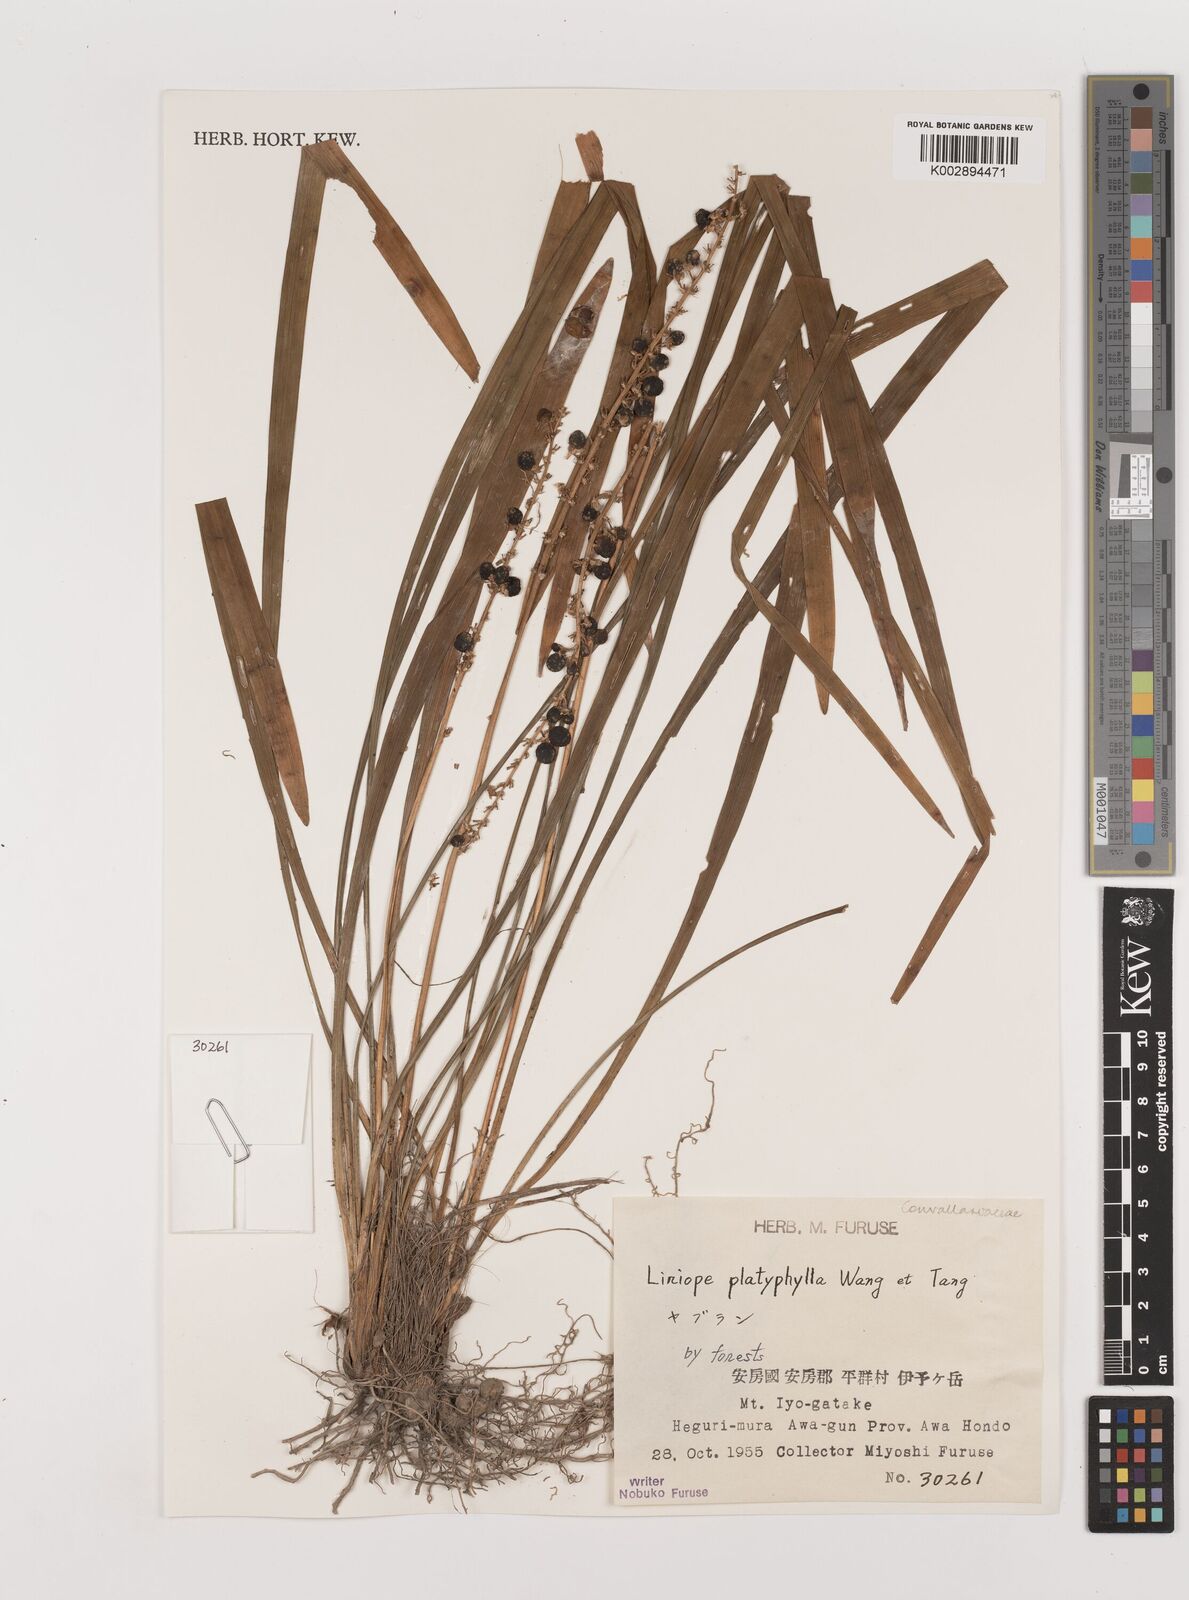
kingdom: Plantae
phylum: Tracheophyta
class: Liliopsida
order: Asparagales
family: Asparagaceae
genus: Liriope
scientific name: Liriope muscari
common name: Big blue lilyturf
